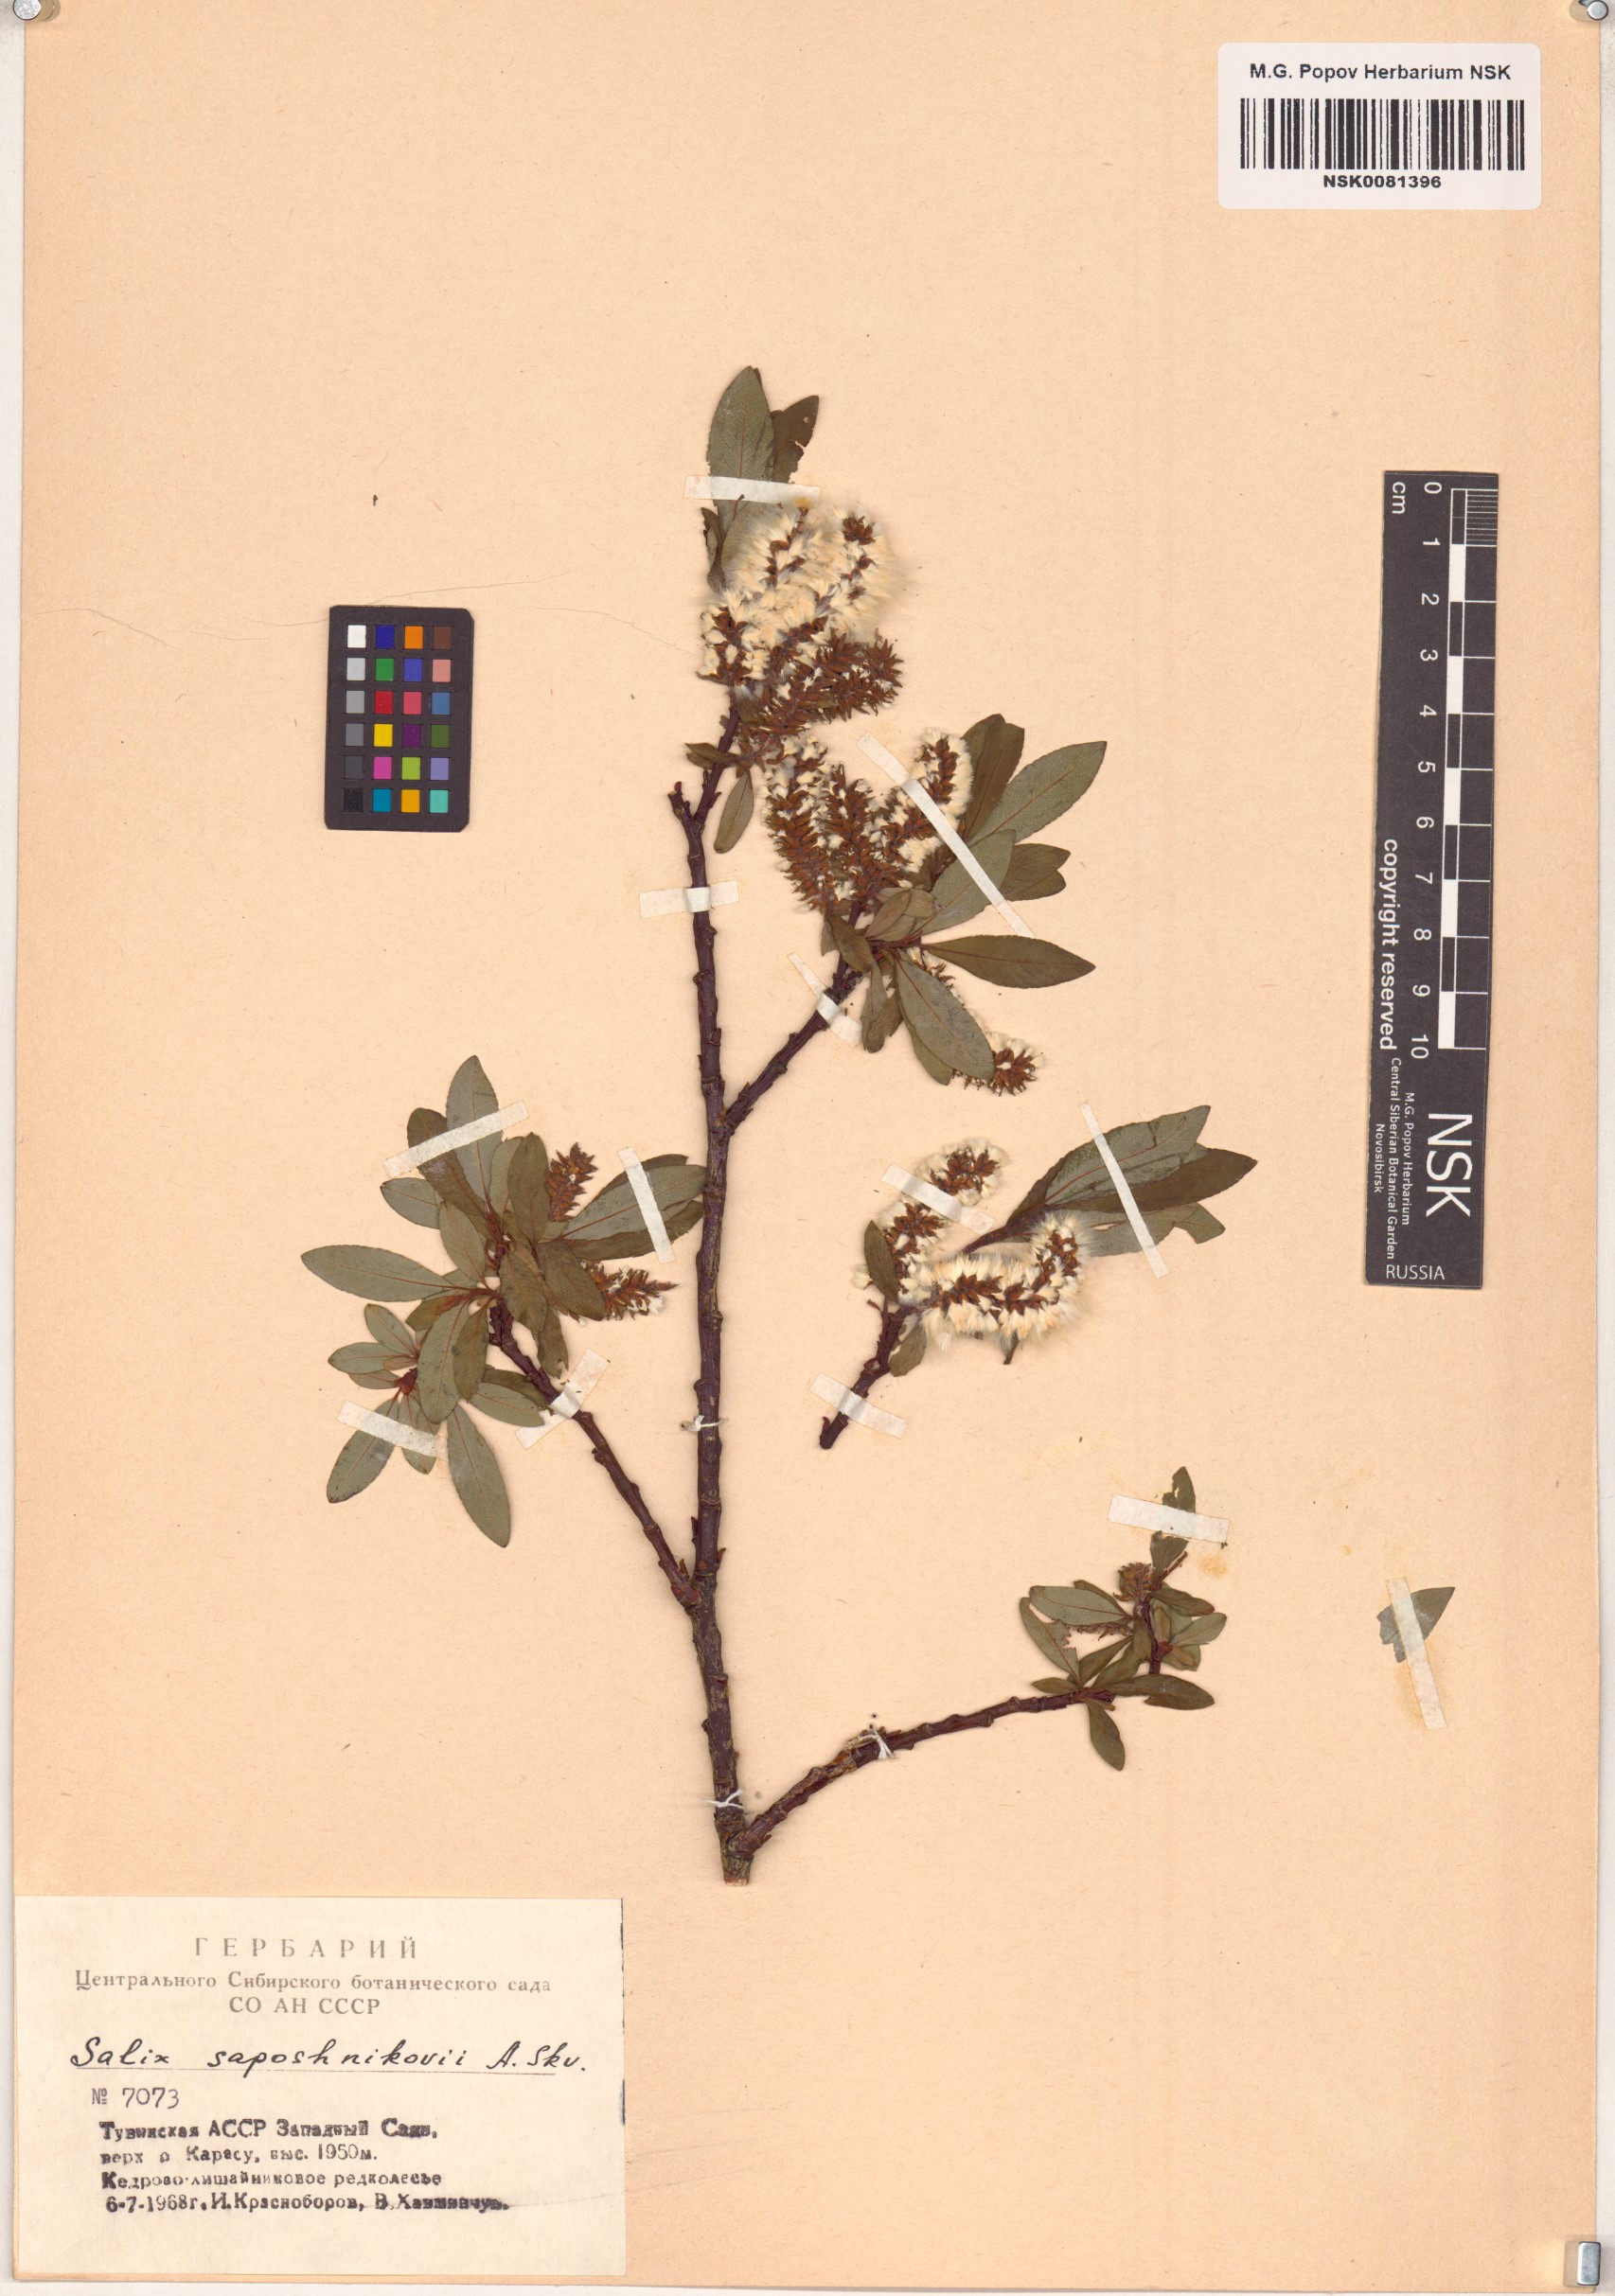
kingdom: Plantae
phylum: Tracheophyta
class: Magnoliopsida
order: Malpighiales
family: Salicaceae
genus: Salix
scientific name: Salix saposhnikovii
